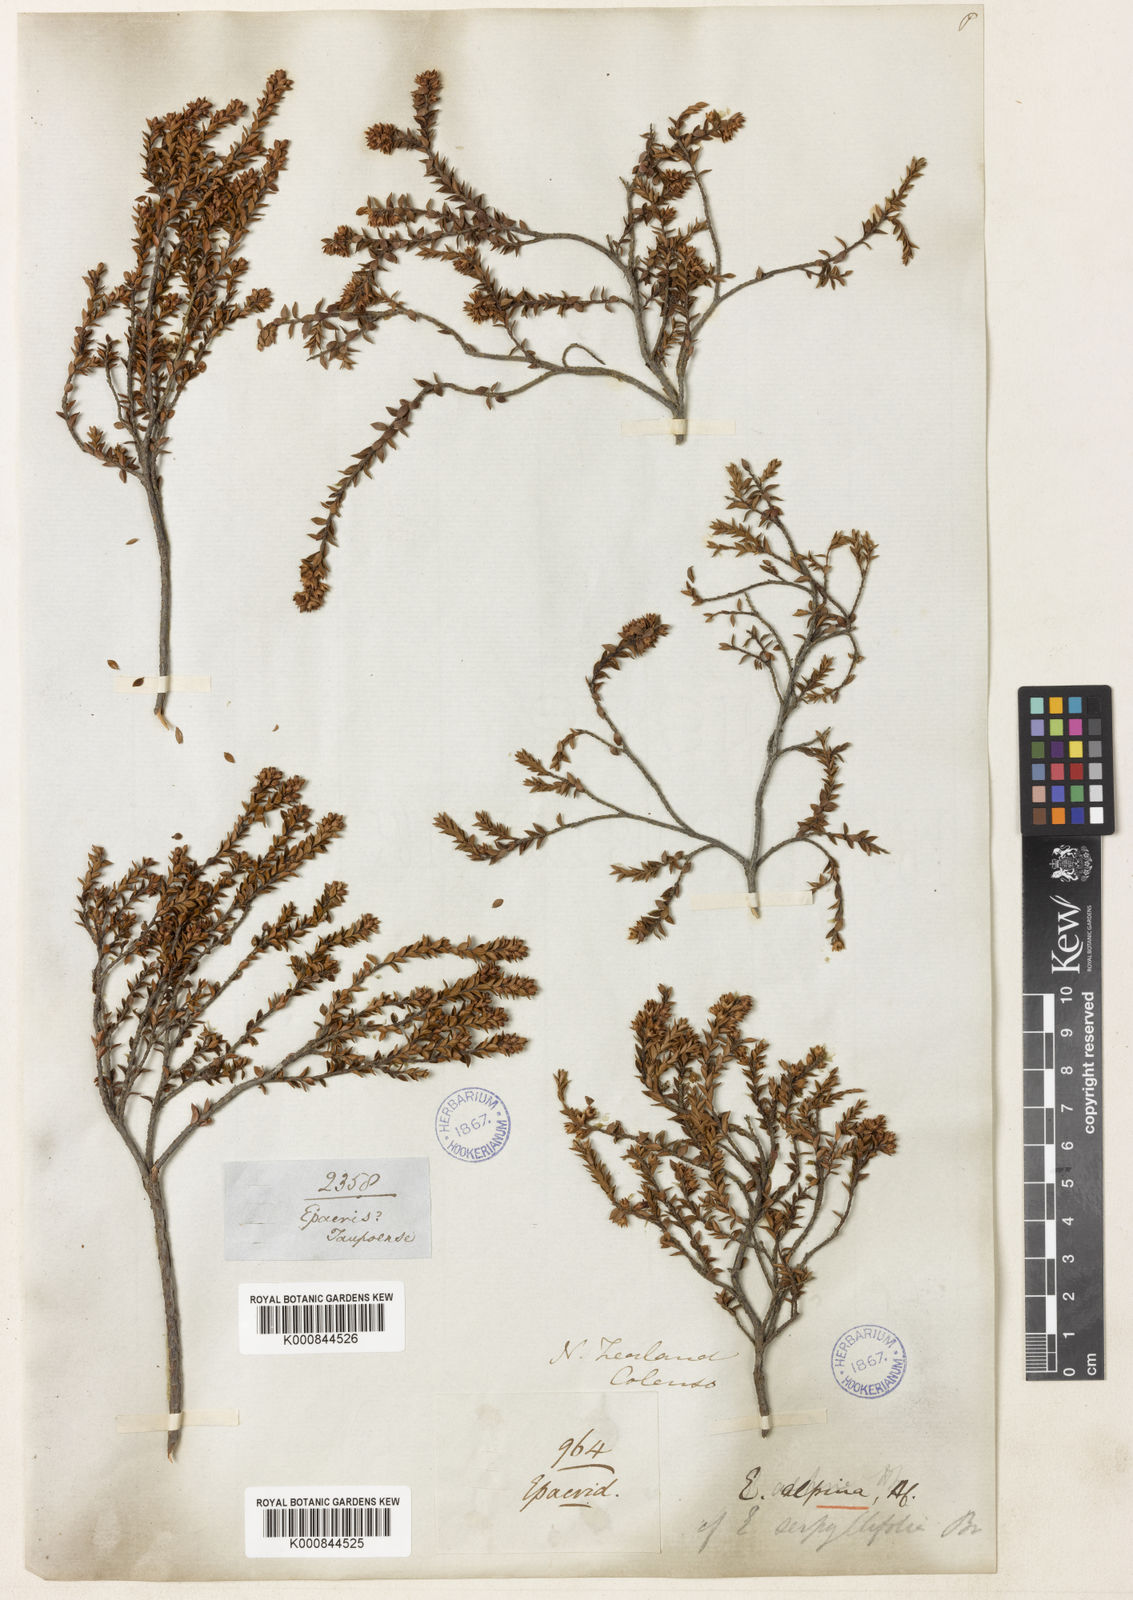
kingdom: Plantae
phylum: Tracheophyta
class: Magnoliopsida
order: Ericales
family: Ericaceae
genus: Epacris
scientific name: Epacris alpina
